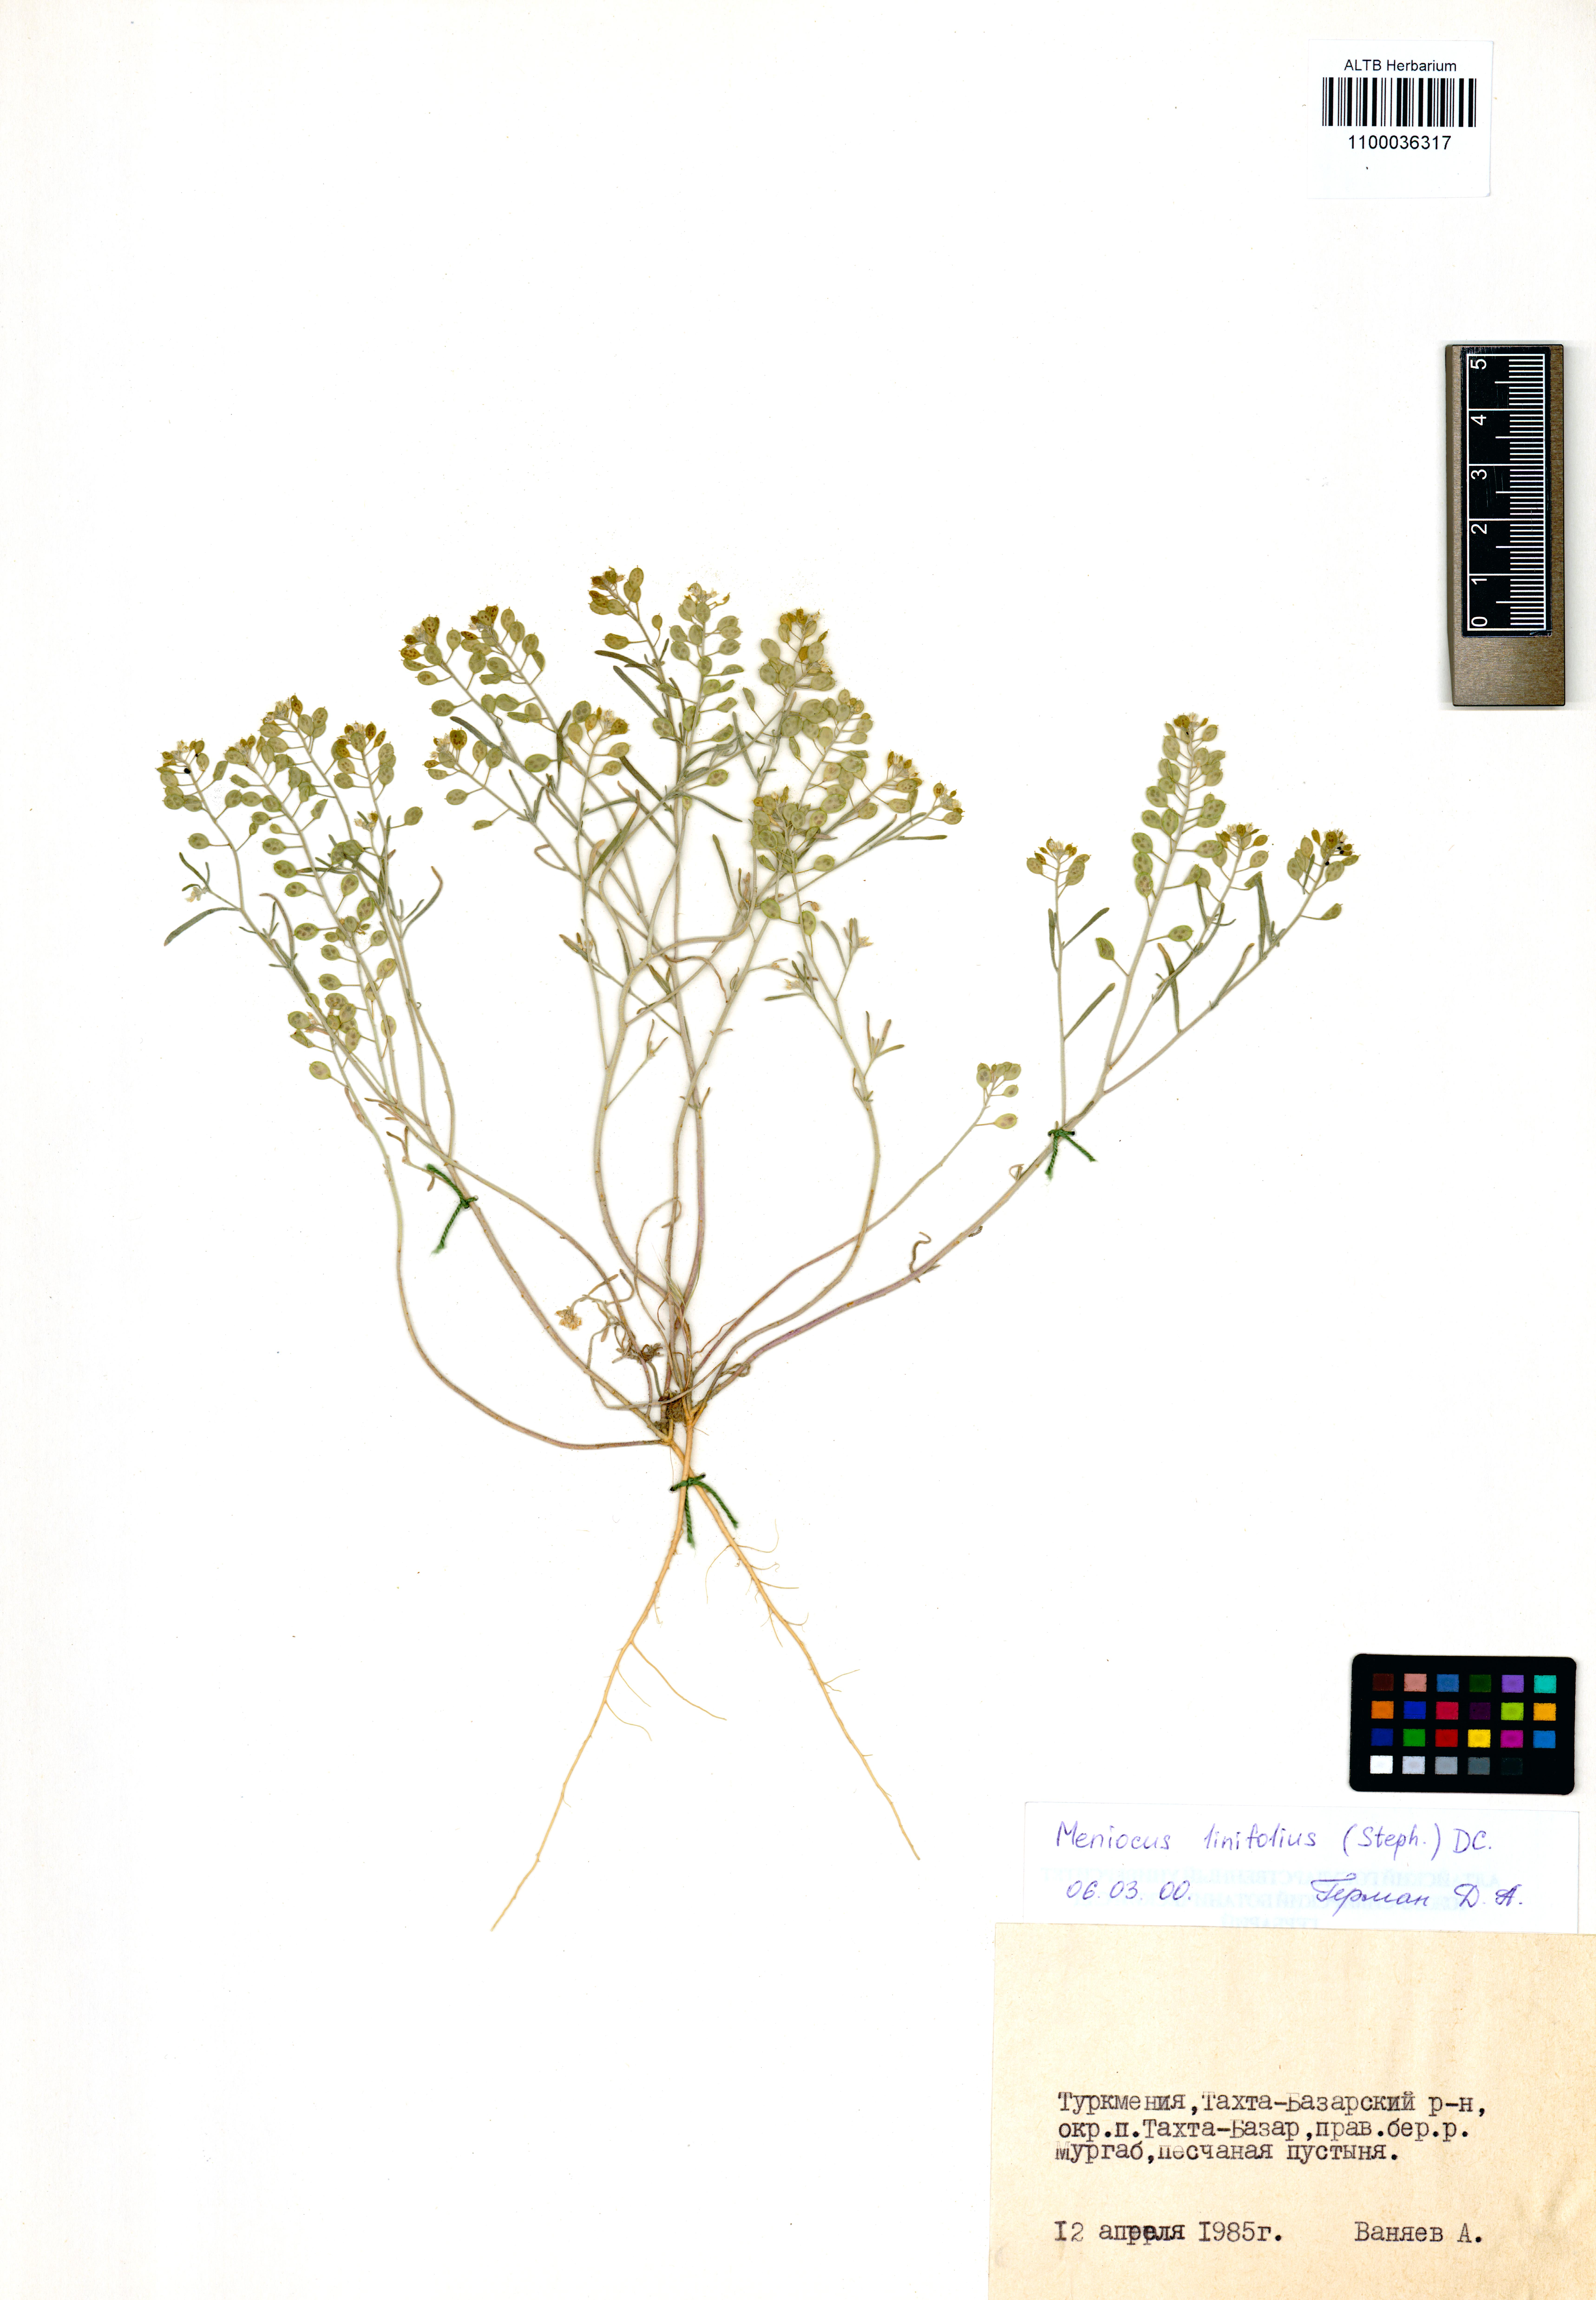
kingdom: Plantae
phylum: Tracheophyta
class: Magnoliopsida
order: Brassicales
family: Brassicaceae
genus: Meniocus
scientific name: Meniocus linifolius
